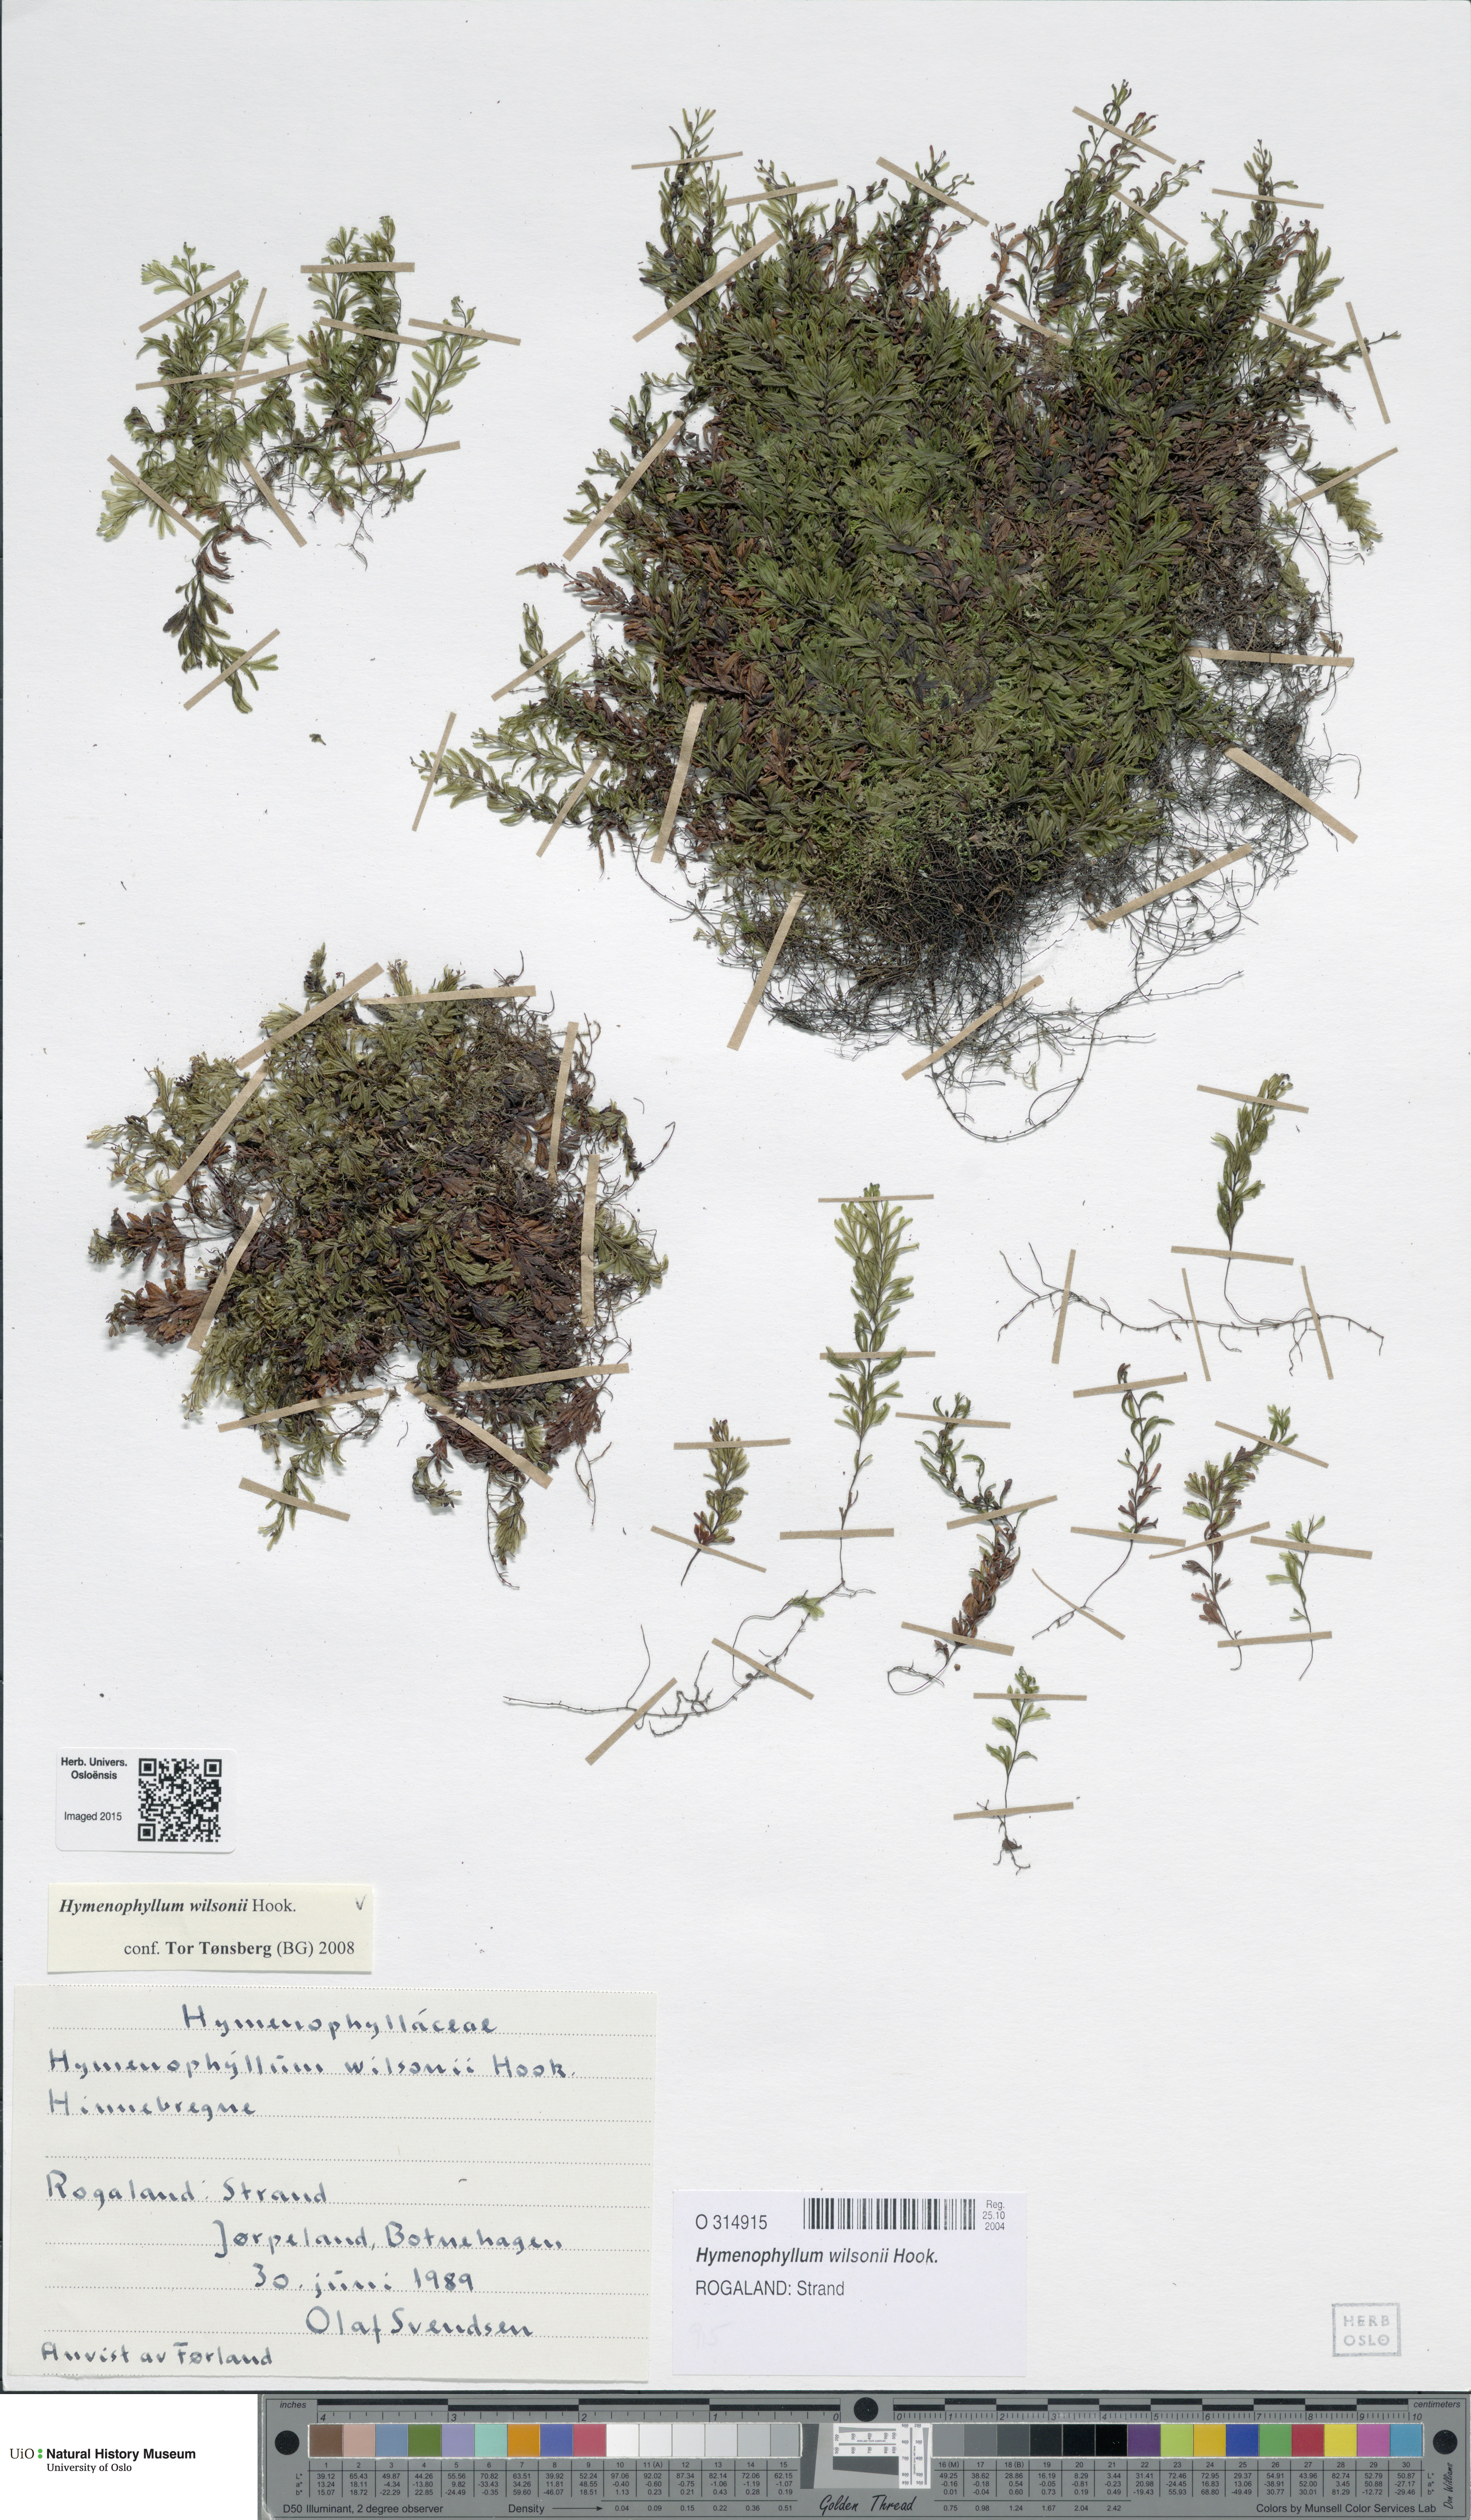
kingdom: Plantae
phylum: Tracheophyta
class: Polypodiopsida
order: Hymenophyllales
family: Hymenophyllaceae
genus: Hymenophyllum
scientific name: Hymenophyllum peltatum
